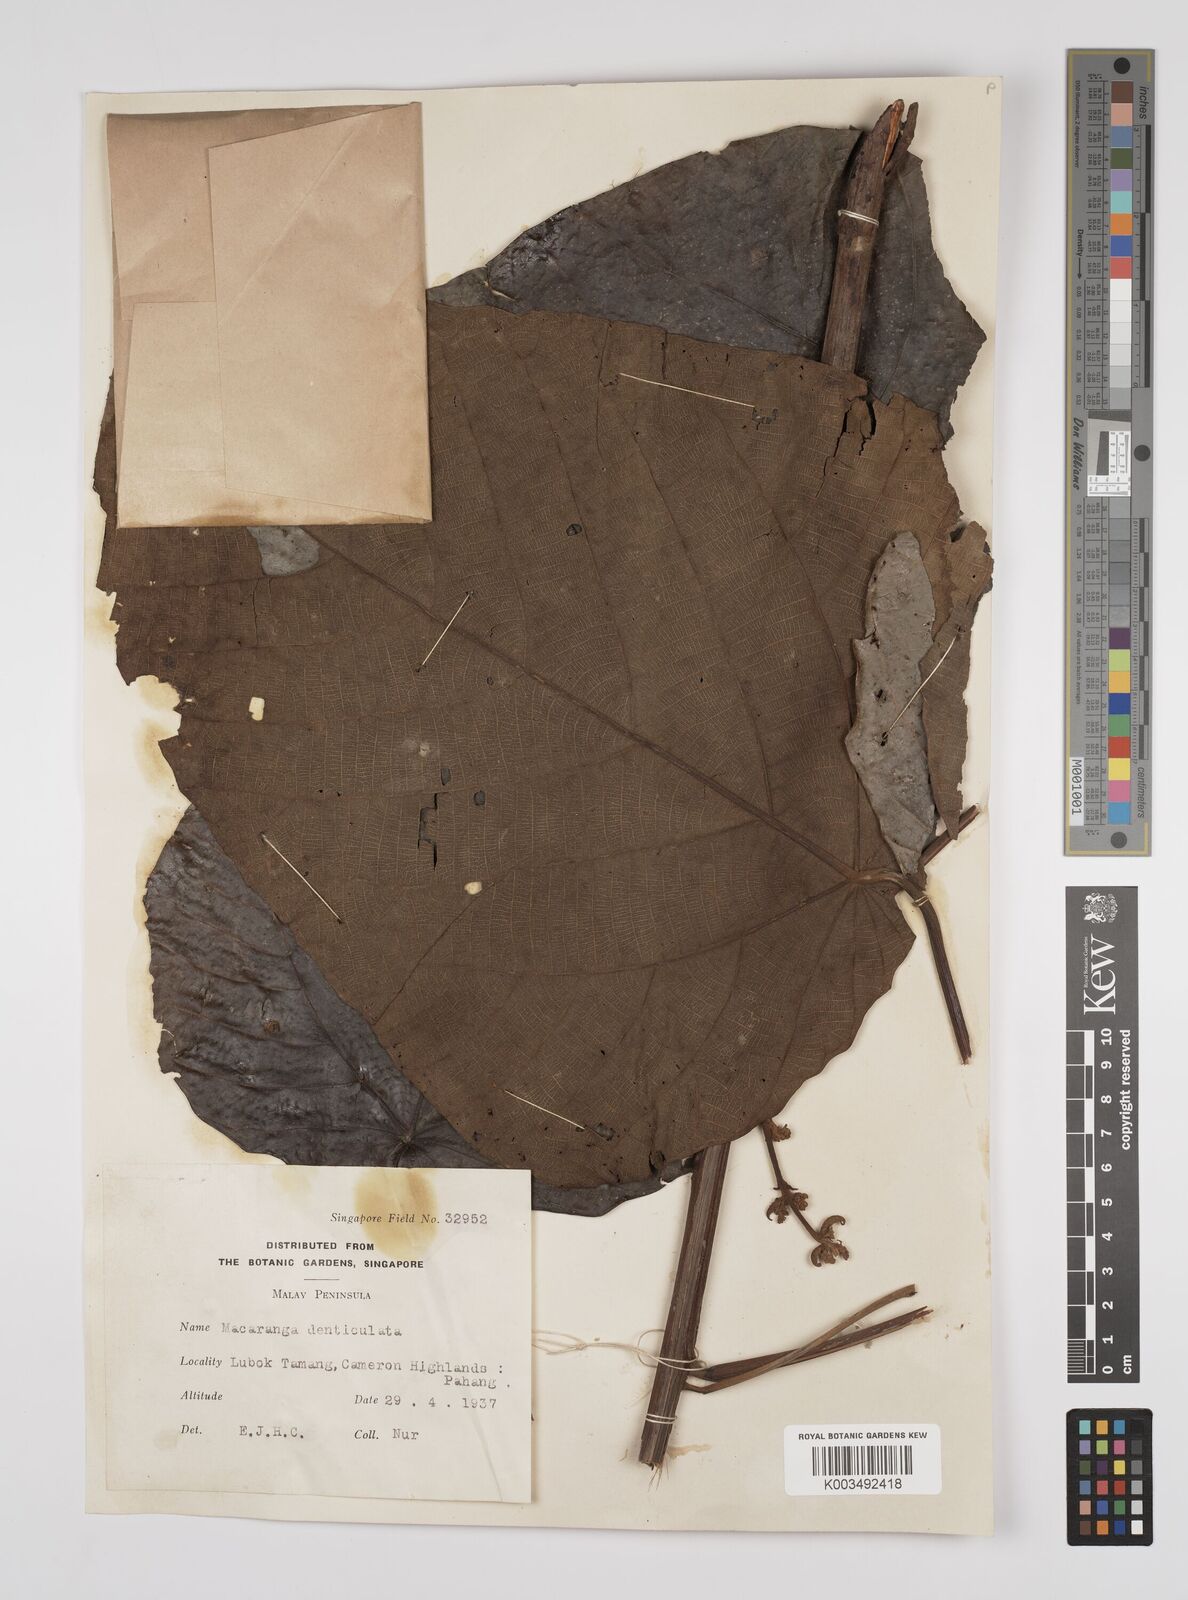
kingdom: Plantae
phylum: Tracheophyta
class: Magnoliopsida
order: Malpighiales
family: Euphorbiaceae
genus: Macaranga
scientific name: Macaranga denticulata
